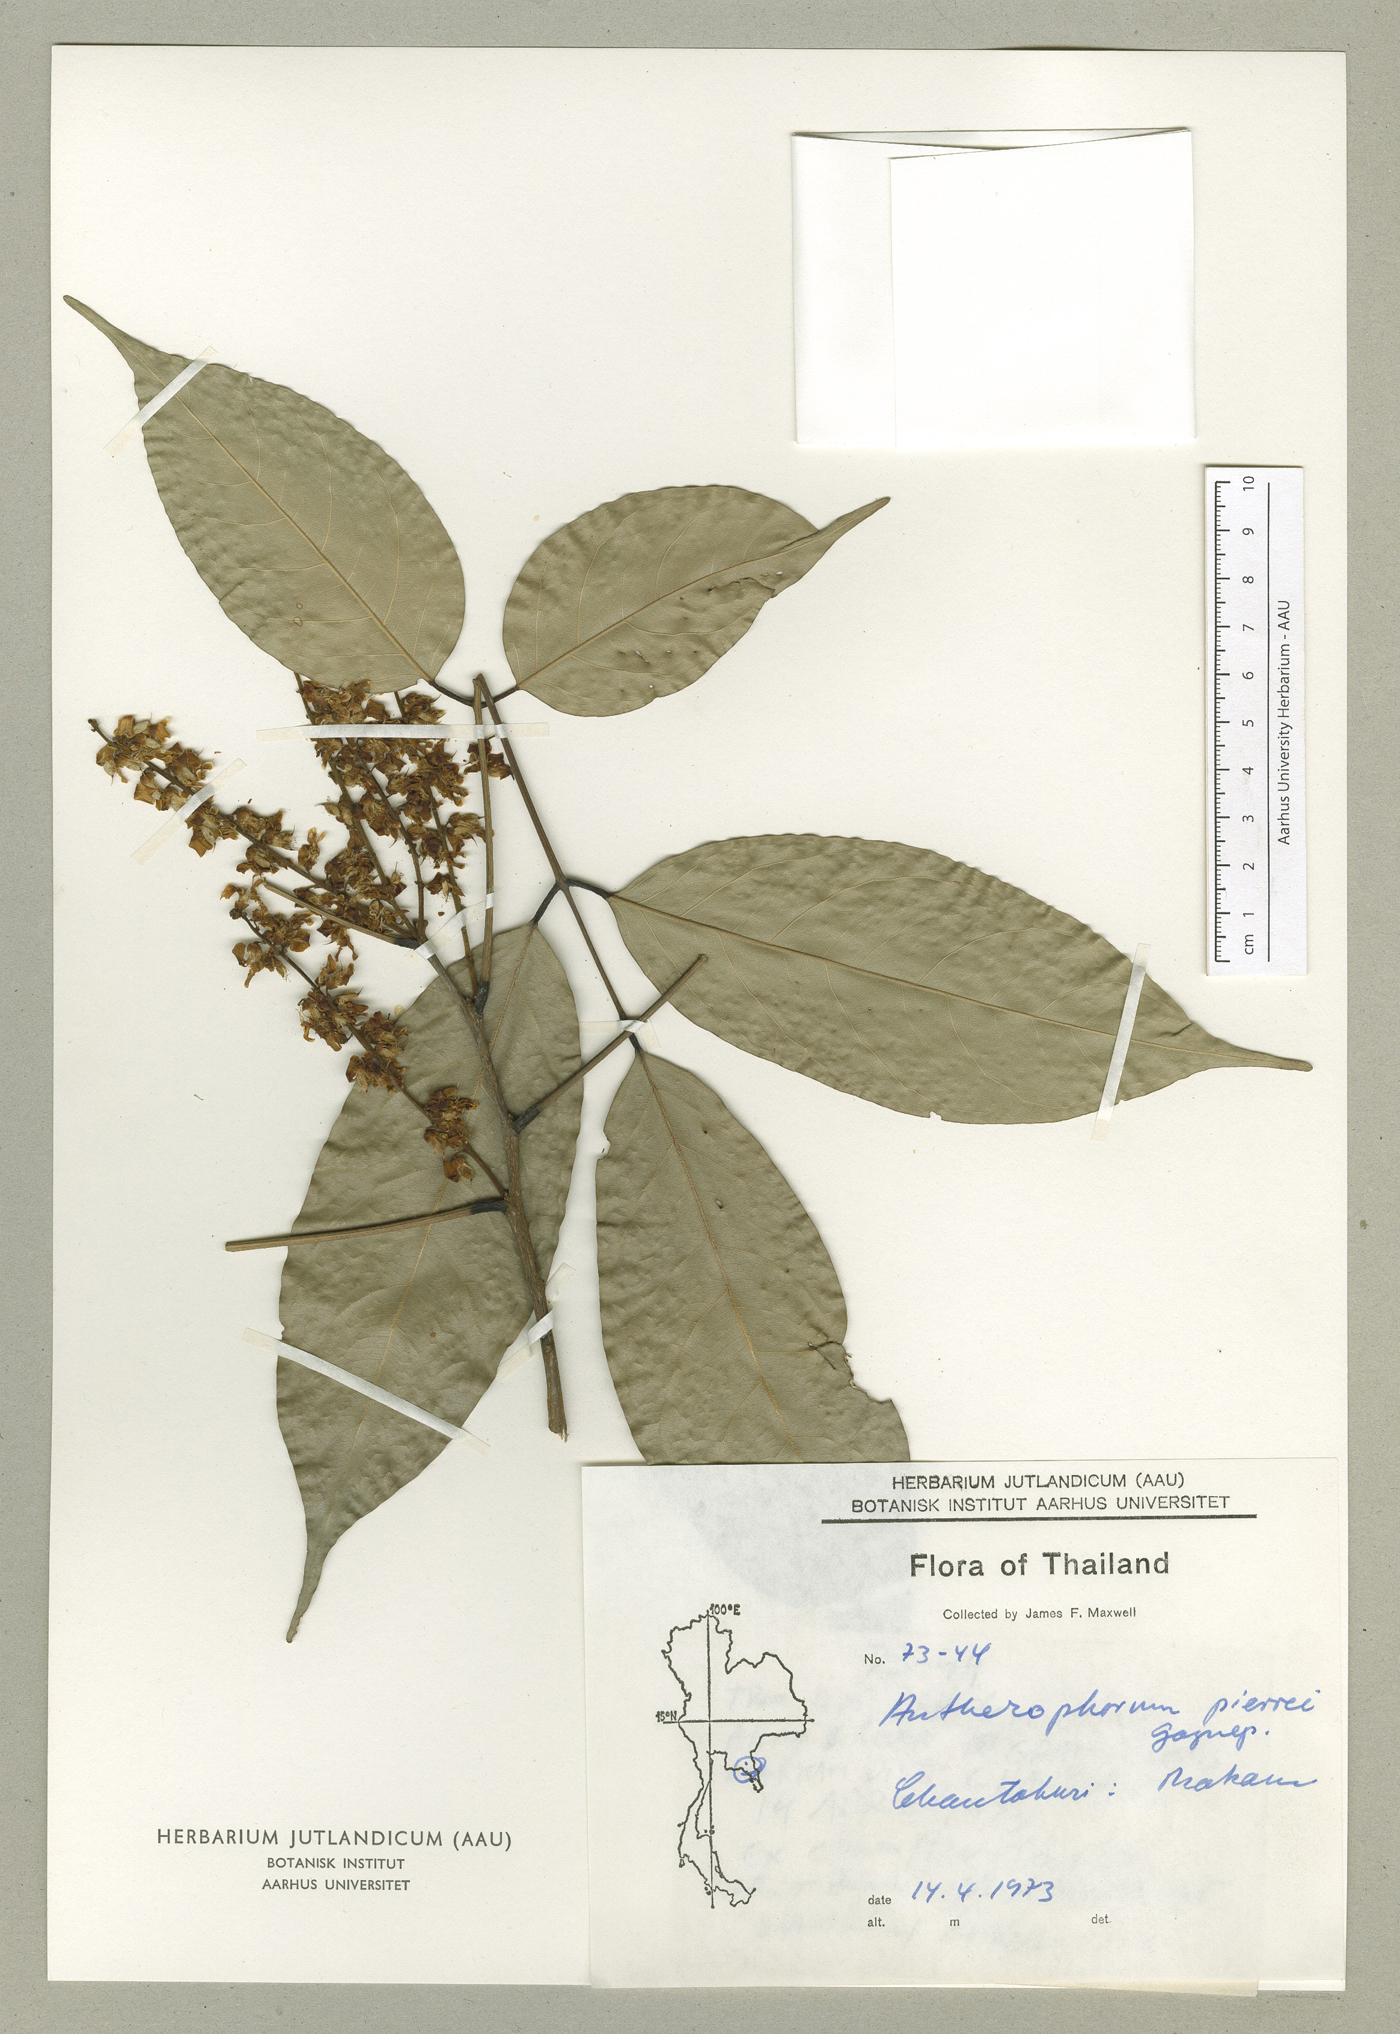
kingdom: Plantae
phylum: Tracheophyta
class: Magnoliopsida
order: Fabales
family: Fabaceae
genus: Antheroporum
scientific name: Antheroporum pierrei
